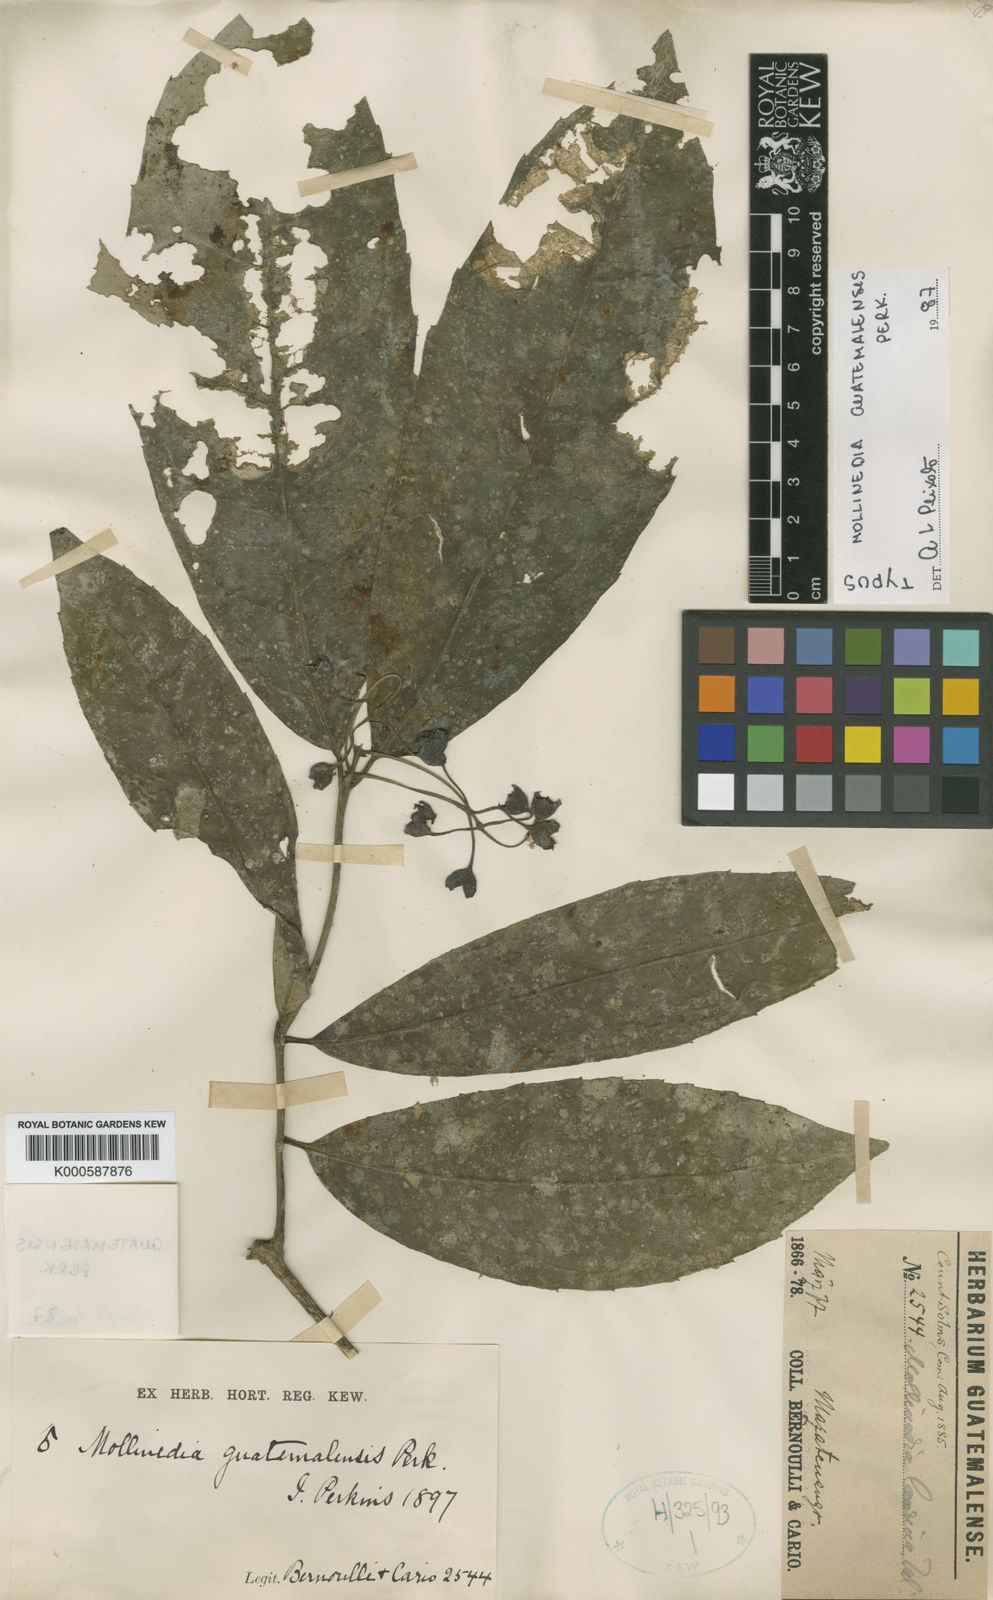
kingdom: Plantae
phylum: Tracheophyta
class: Magnoliopsida
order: Laurales
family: Monimiaceae
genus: Mollinedia
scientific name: Mollinedia viridiflora
